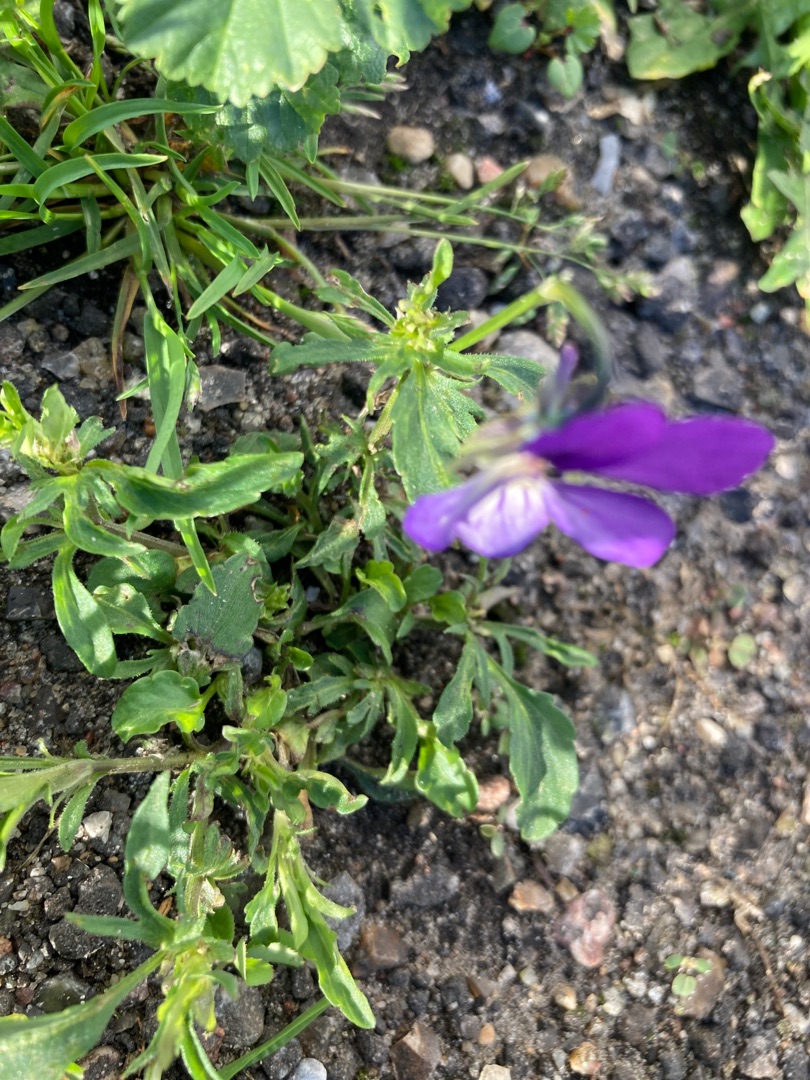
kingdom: Plantae
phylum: Tracheophyta
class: Magnoliopsida
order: Malpighiales
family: Violaceae
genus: Viola
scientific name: Viola tricolor
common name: Stedmoderblomst
